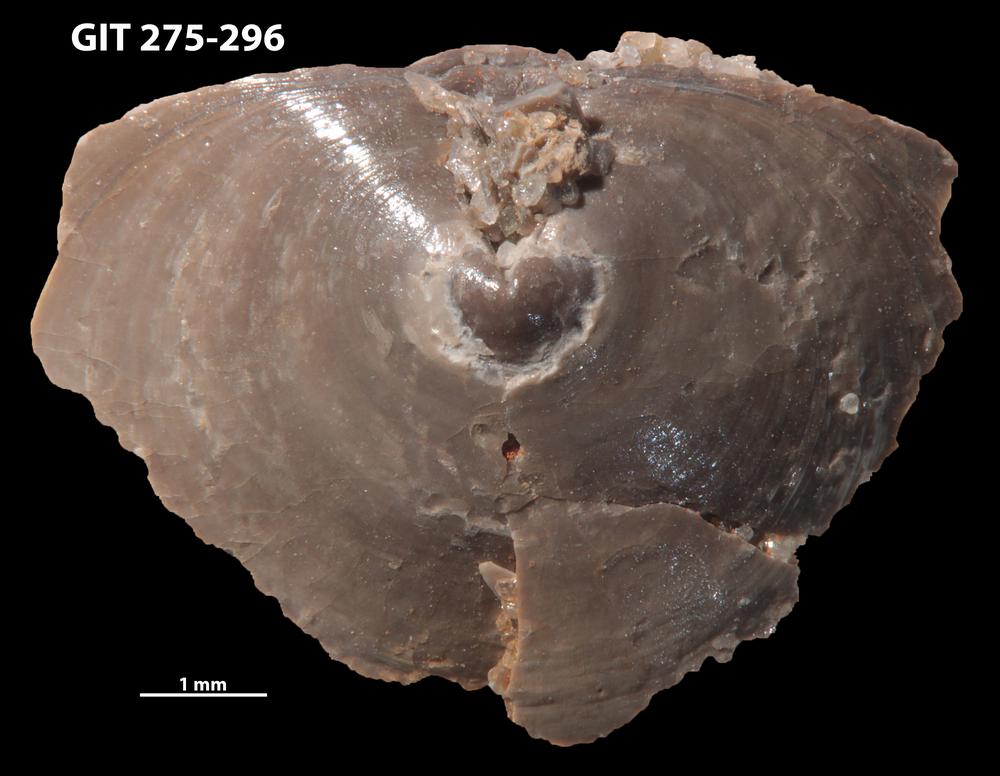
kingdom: Animalia
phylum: Brachiopoda
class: Lingulata
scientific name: Lingulata
